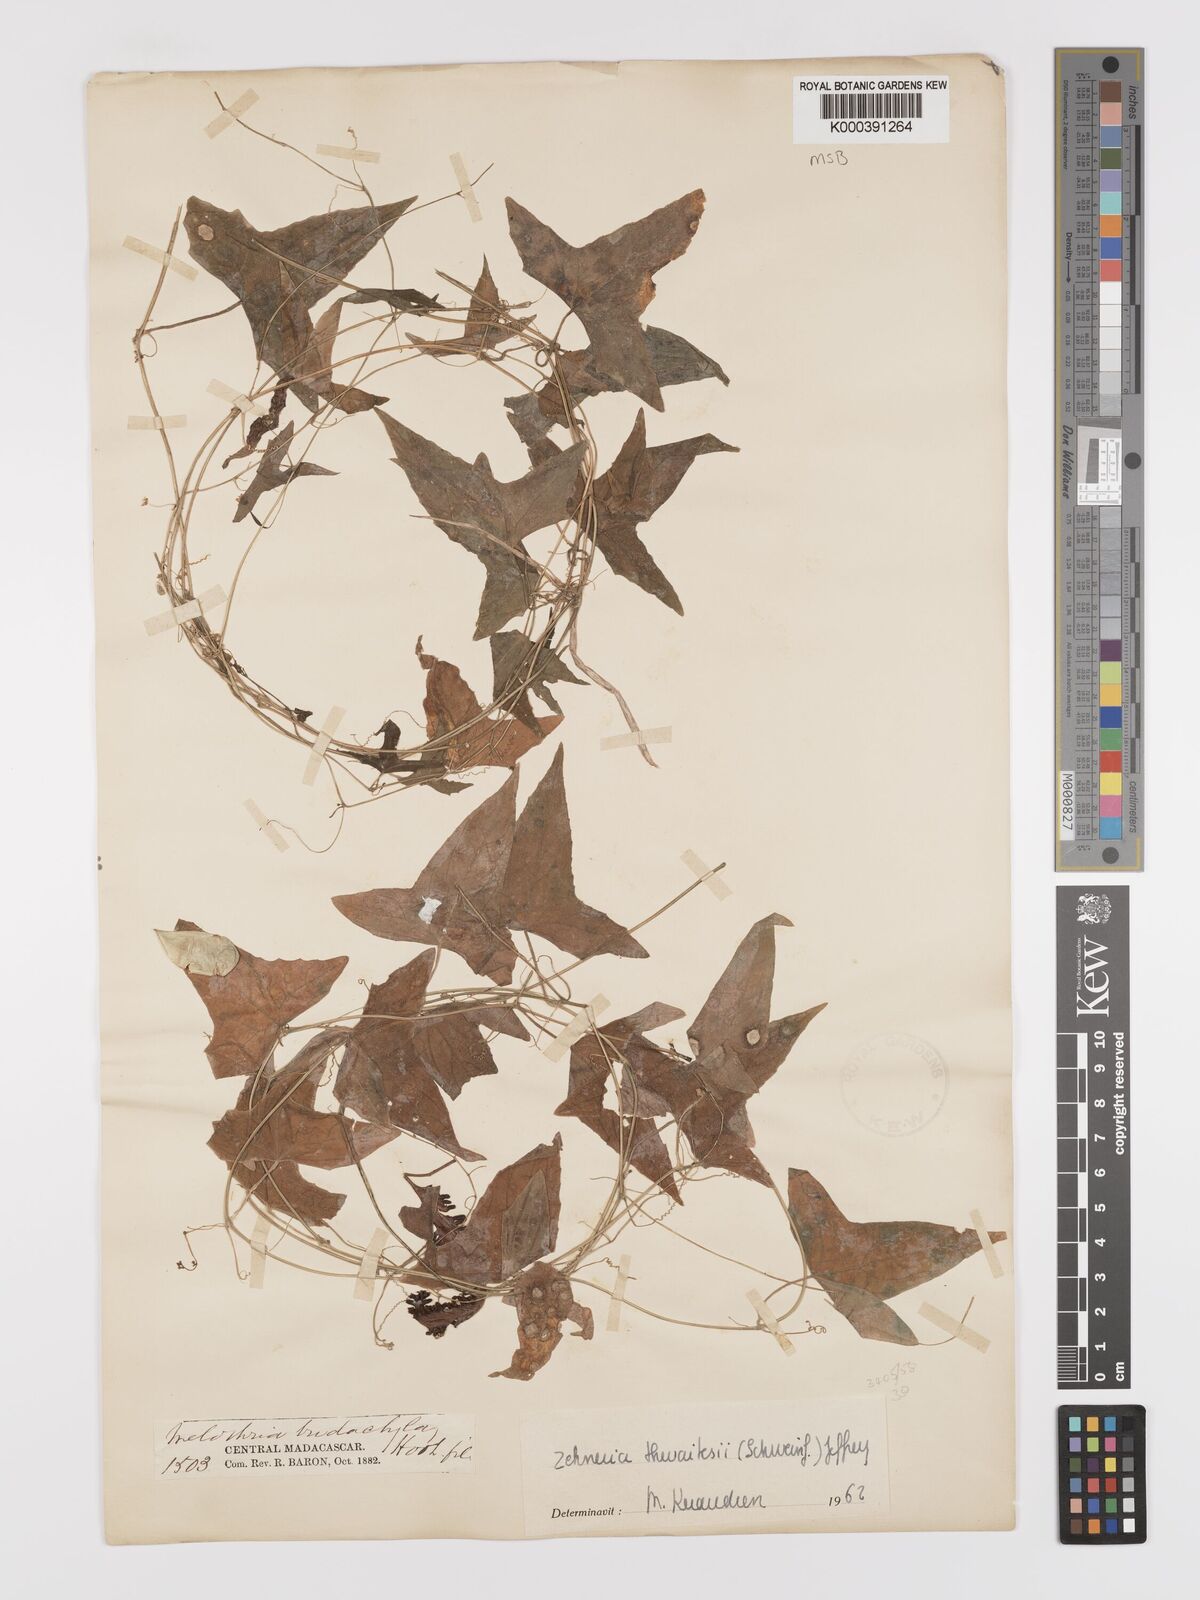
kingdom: Plantae
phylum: Tracheophyta
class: Magnoliopsida
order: Cucurbitales
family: Cucurbitaceae
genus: Zehneria
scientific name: Zehneria thwaitesii
